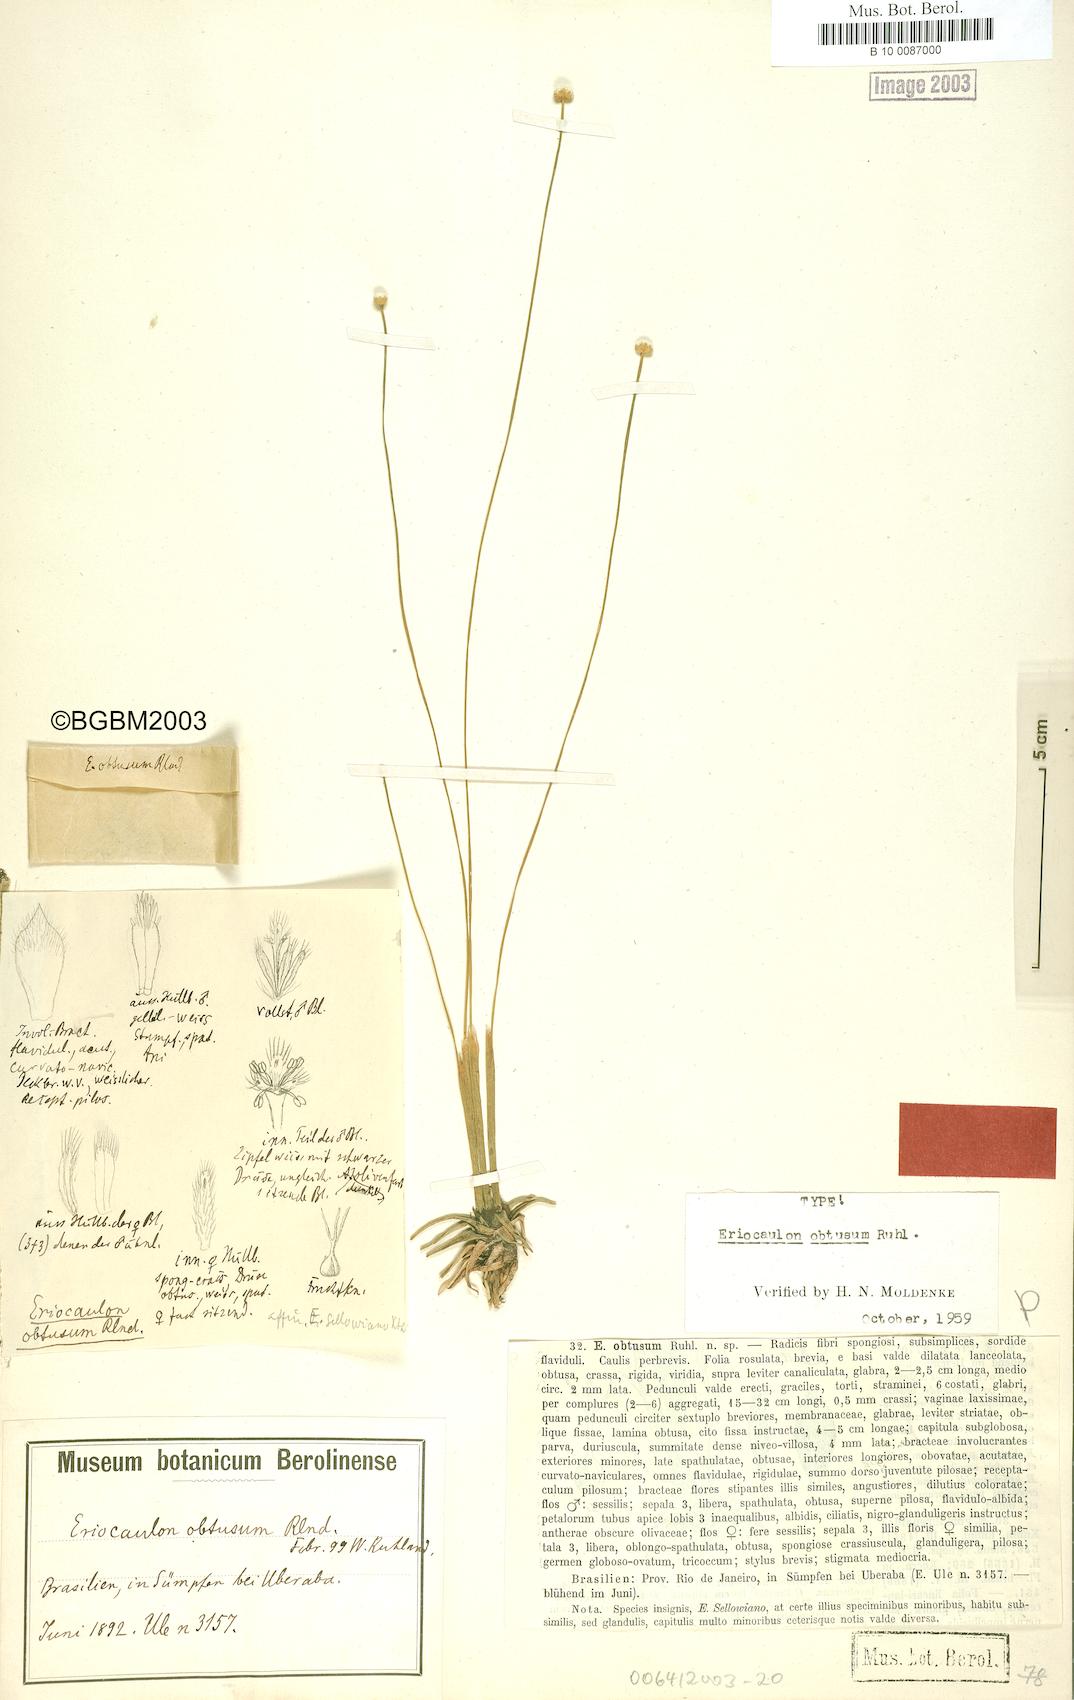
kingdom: Plantae
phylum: Tracheophyta
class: Liliopsida
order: Poales
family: Eriocaulaceae
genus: Eriocaulon
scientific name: Eriocaulon obtusum
